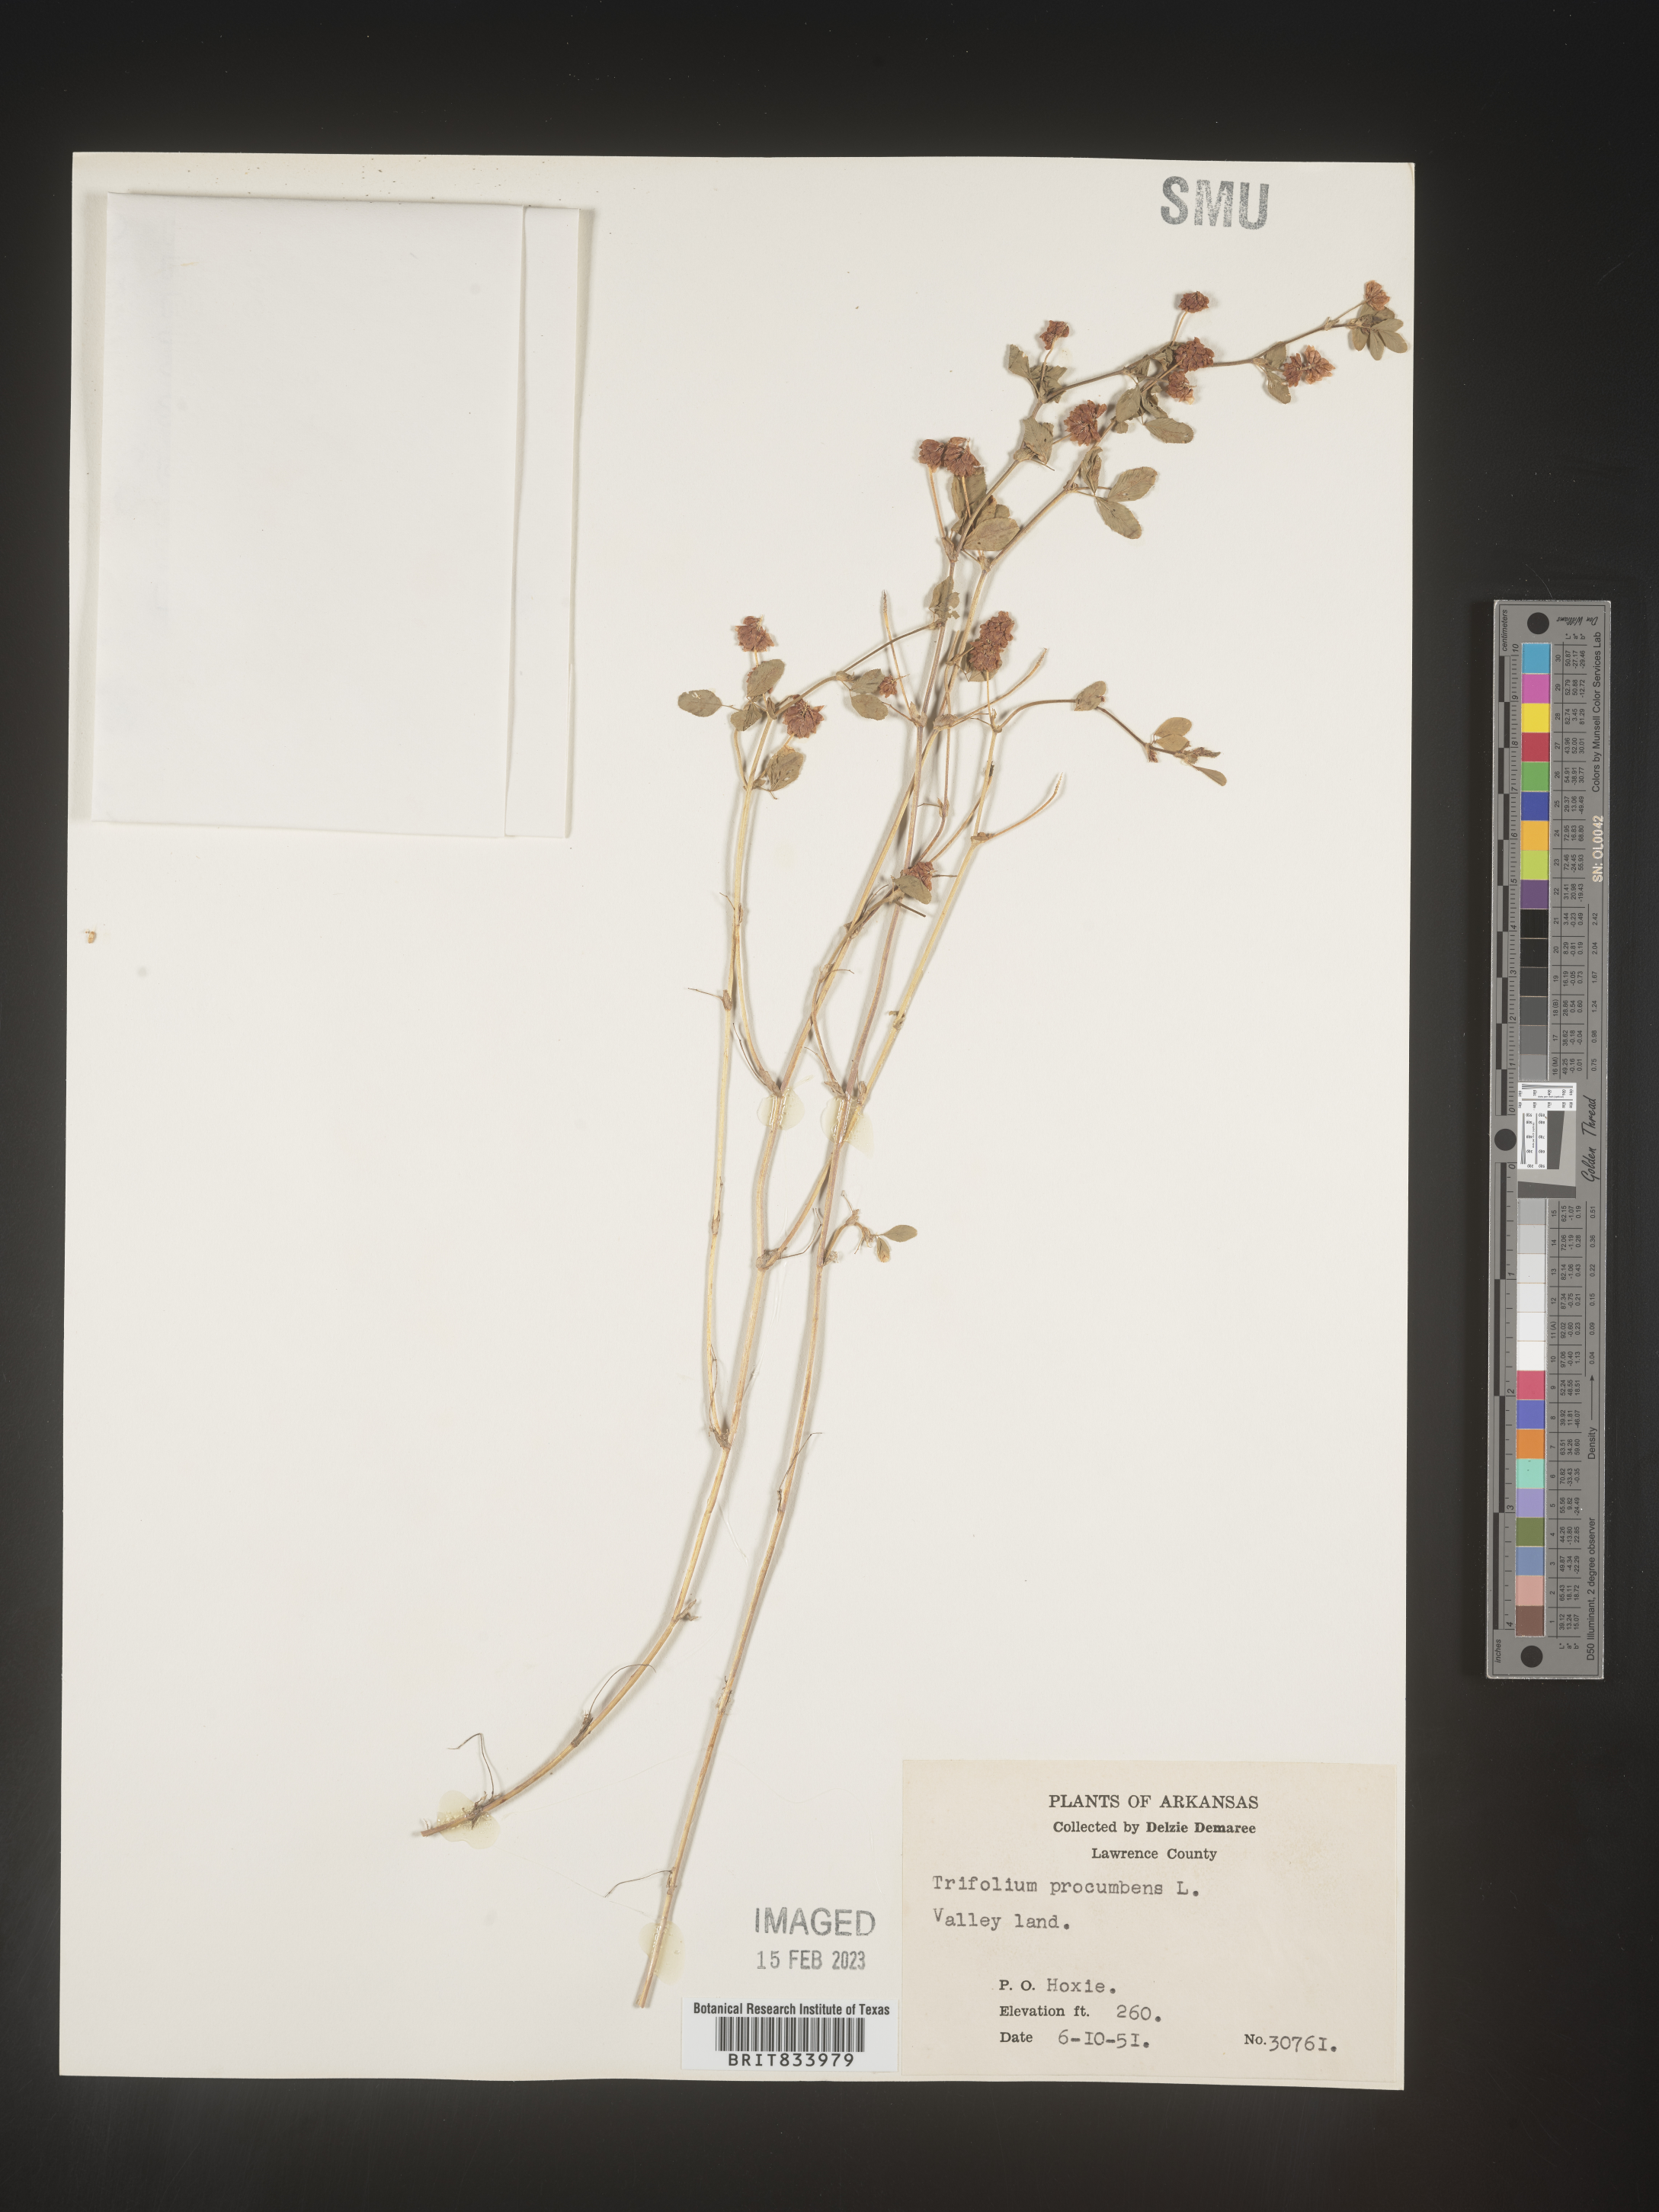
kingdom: Plantae
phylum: Tracheophyta
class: Magnoliopsida
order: Fabales
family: Fabaceae
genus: Trifolium
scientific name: Trifolium campestre
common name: Field clover
